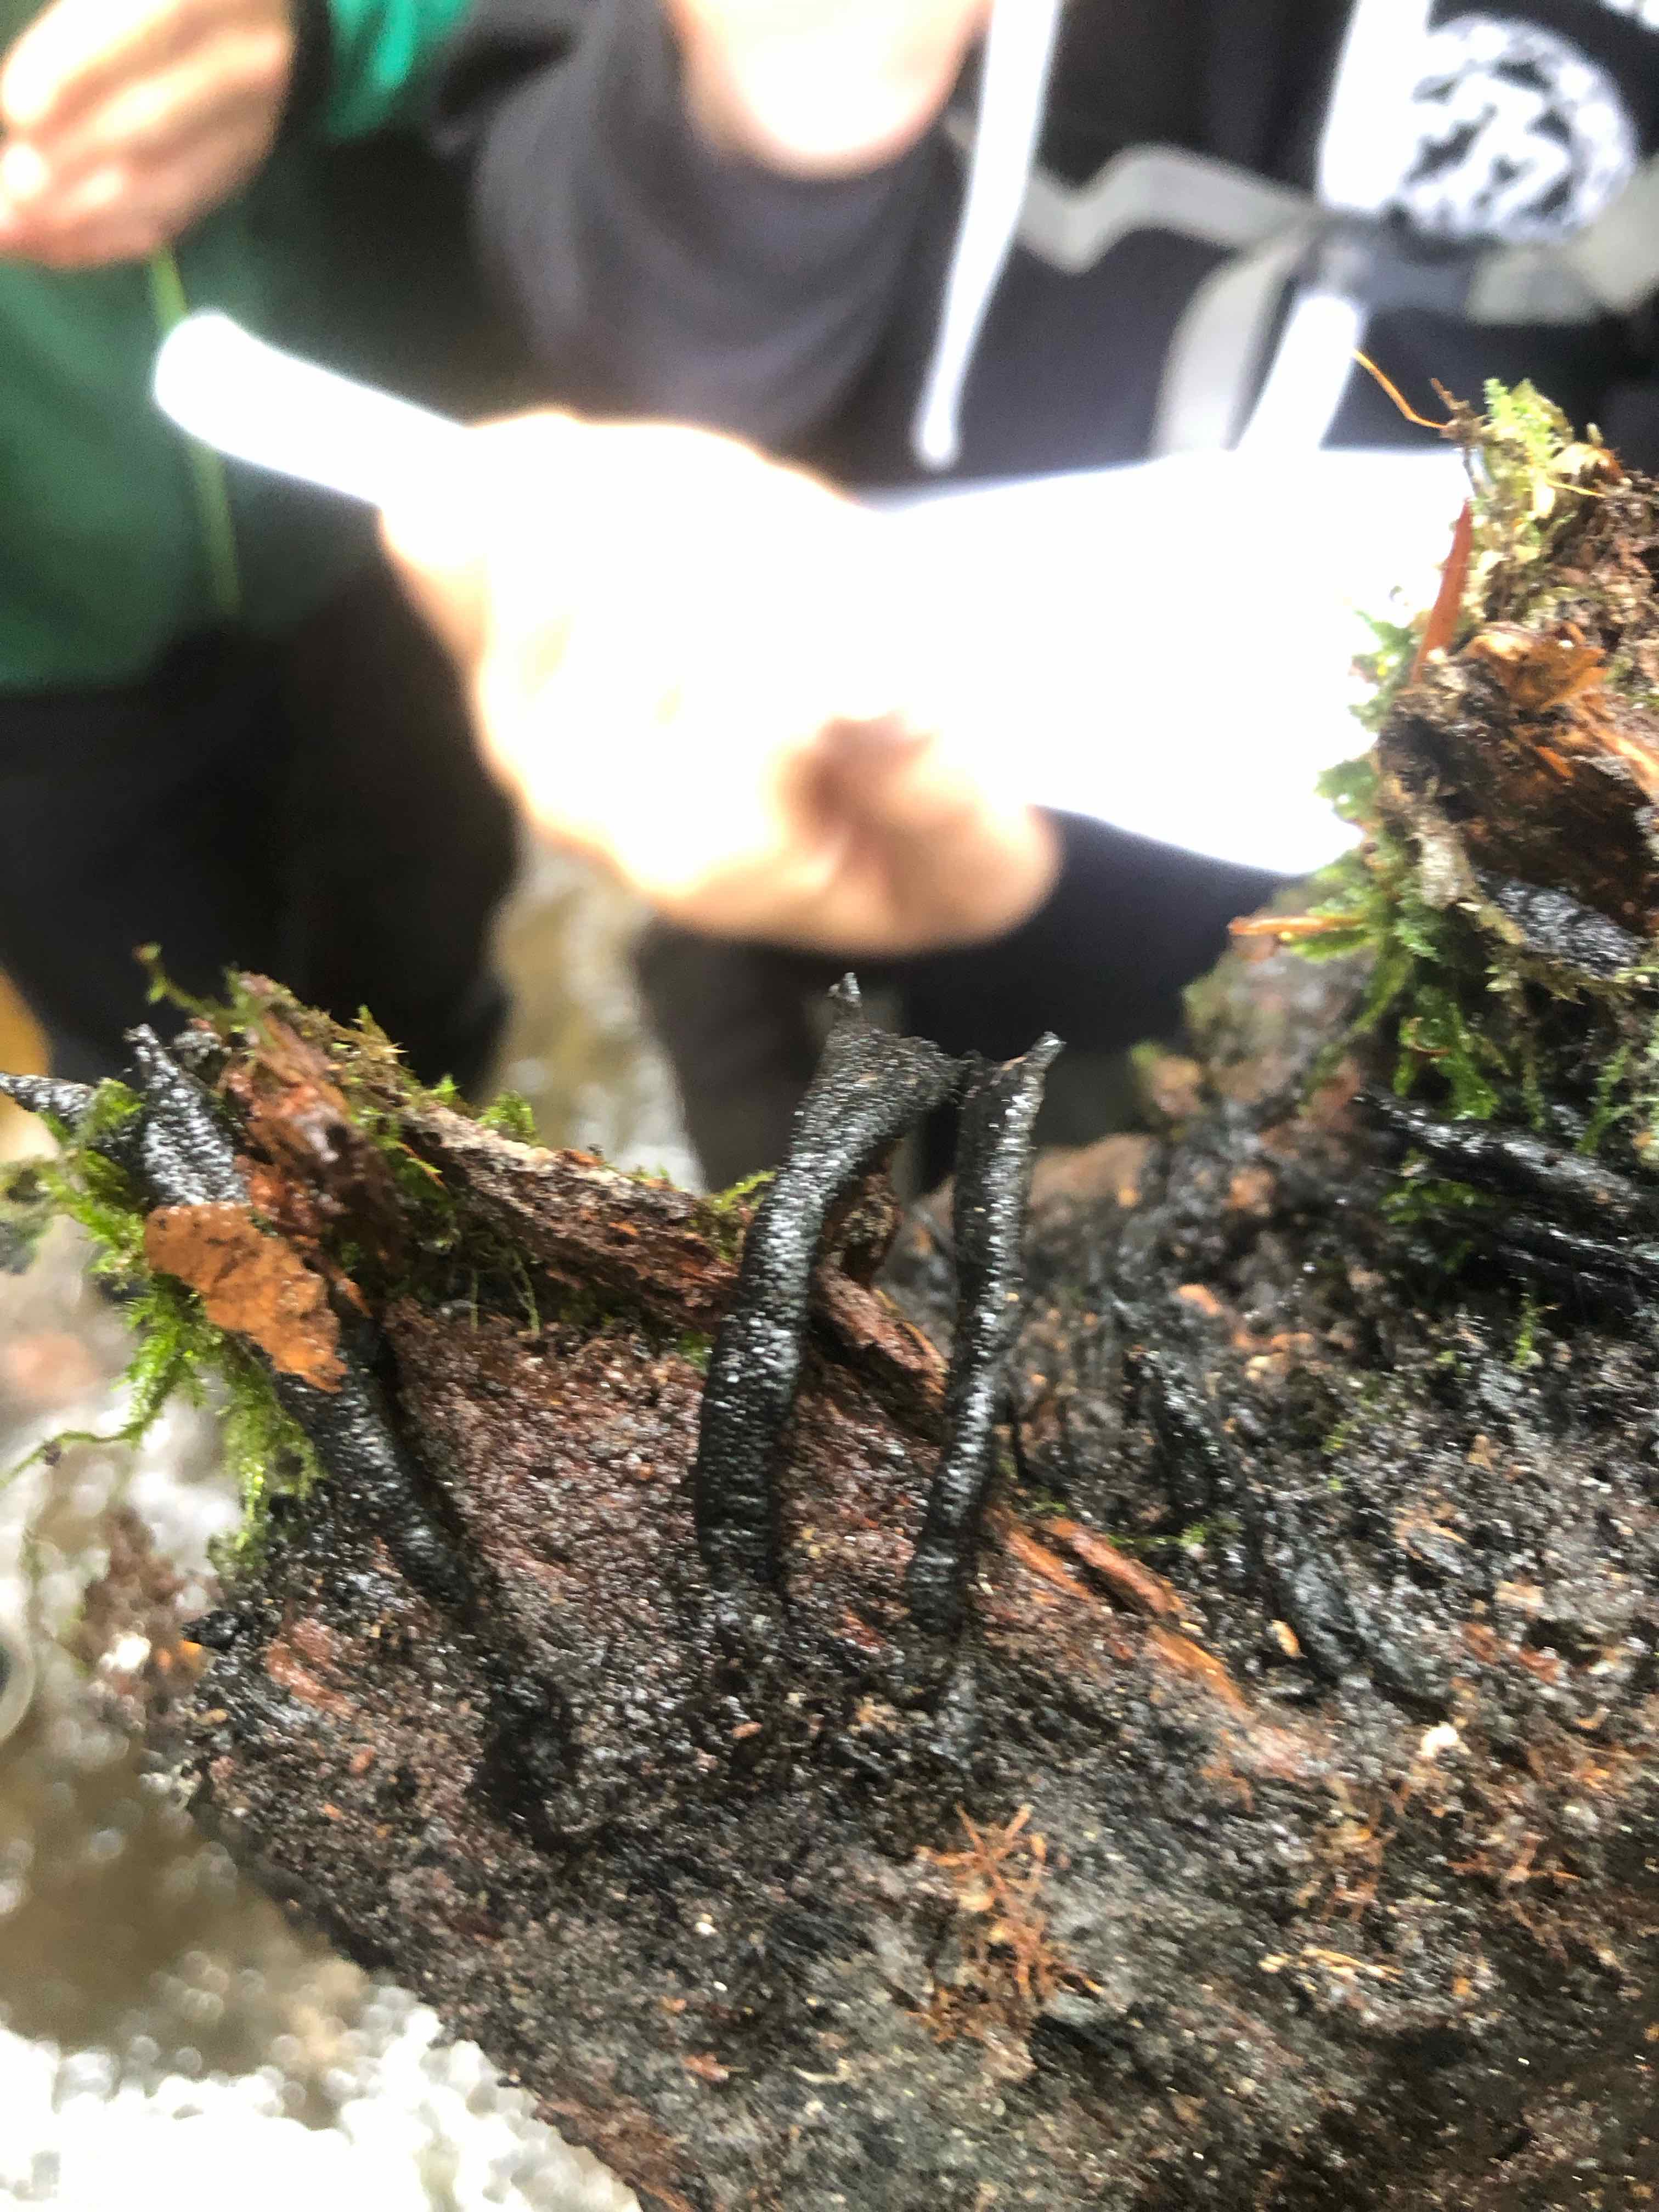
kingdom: Fungi
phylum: Ascomycota
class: Sordariomycetes
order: Xylariales
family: Xylariaceae
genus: Xylaria
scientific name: Xylaria hypoxylon
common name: grenet stødsvamp
